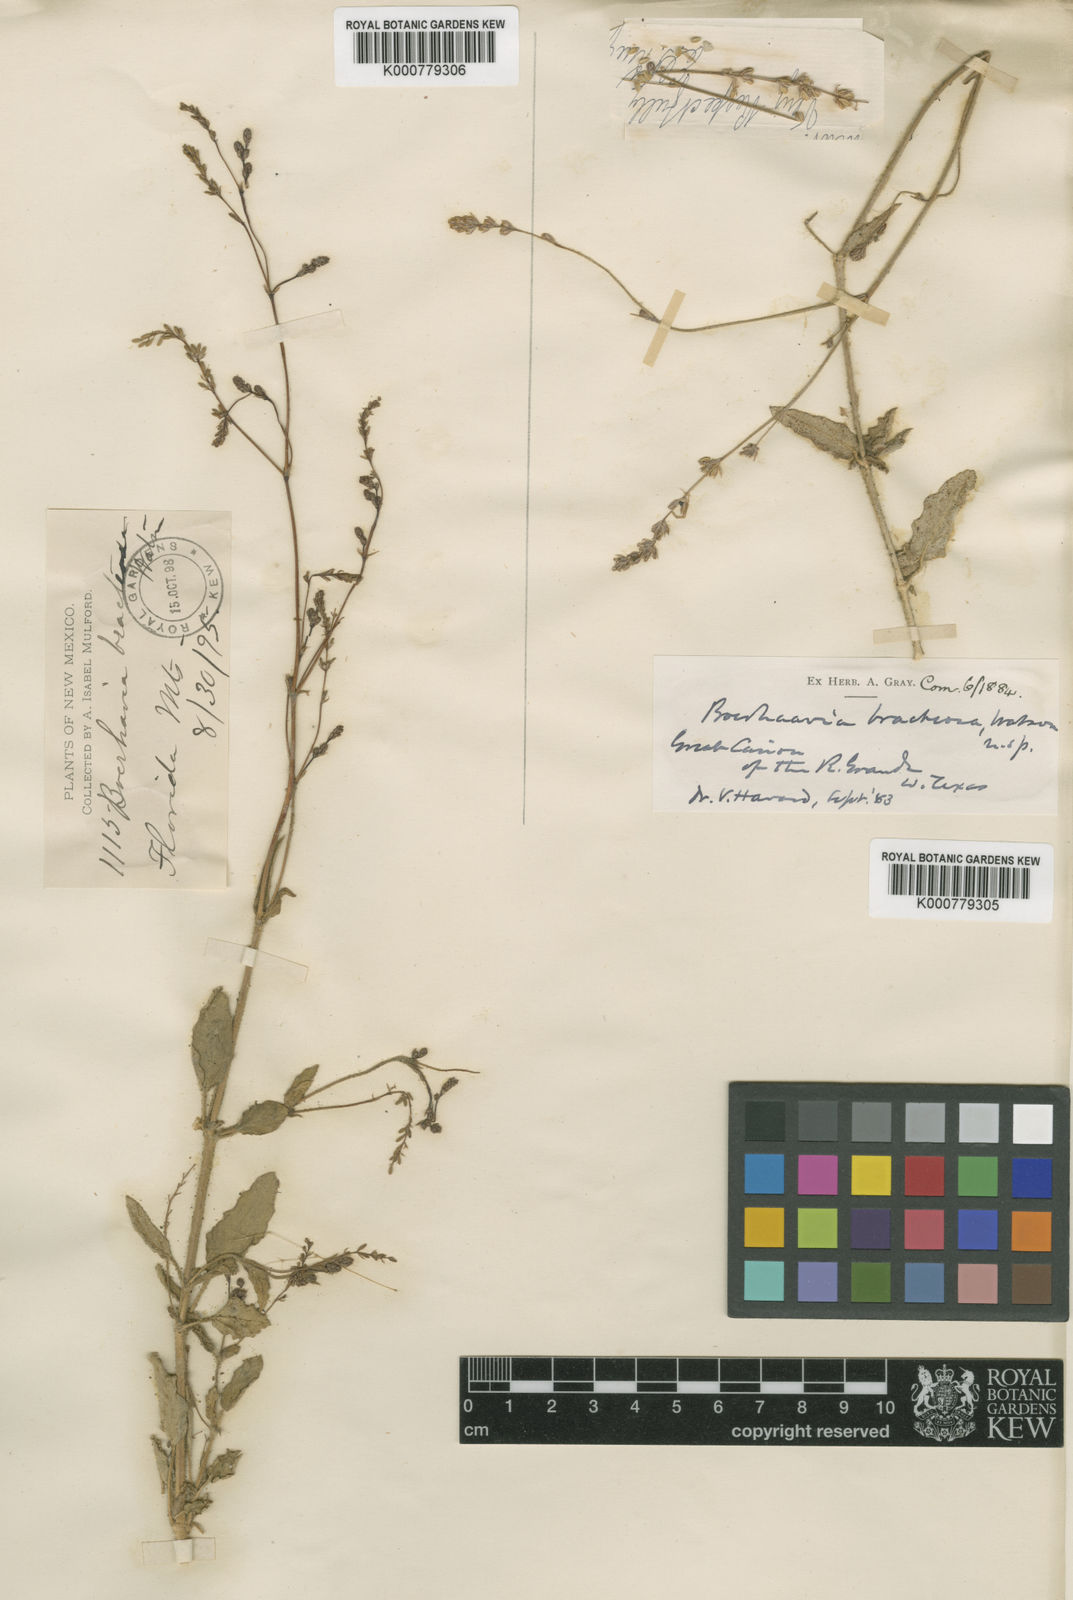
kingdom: Plantae
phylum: Tracheophyta
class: Magnoliopsida
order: Caryophyllales
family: Nyctaginaceae
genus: Boerhavia
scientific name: Boerhavia bracteosa
